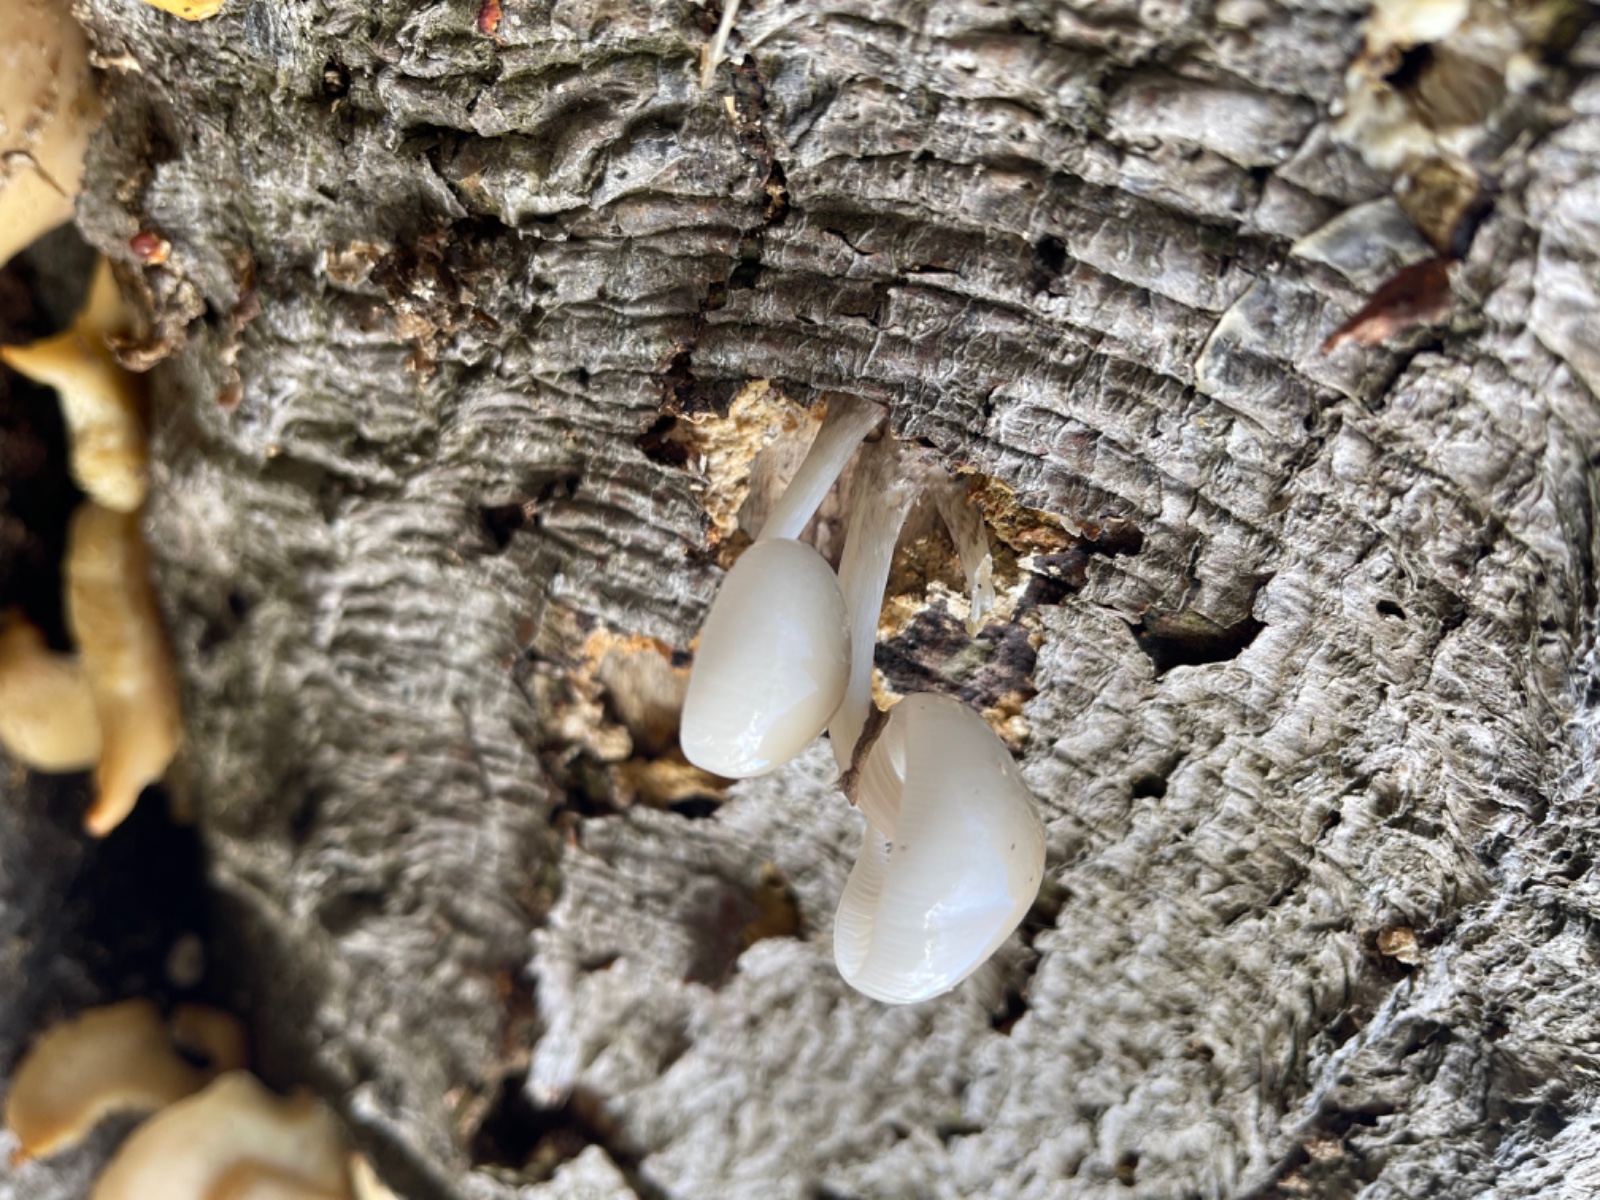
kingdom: Fungi
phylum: Basidiomycota
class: Agaricomycetes
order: Agaricales
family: Physalacriaceae
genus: Mucidula
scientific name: Mucidula mucida
